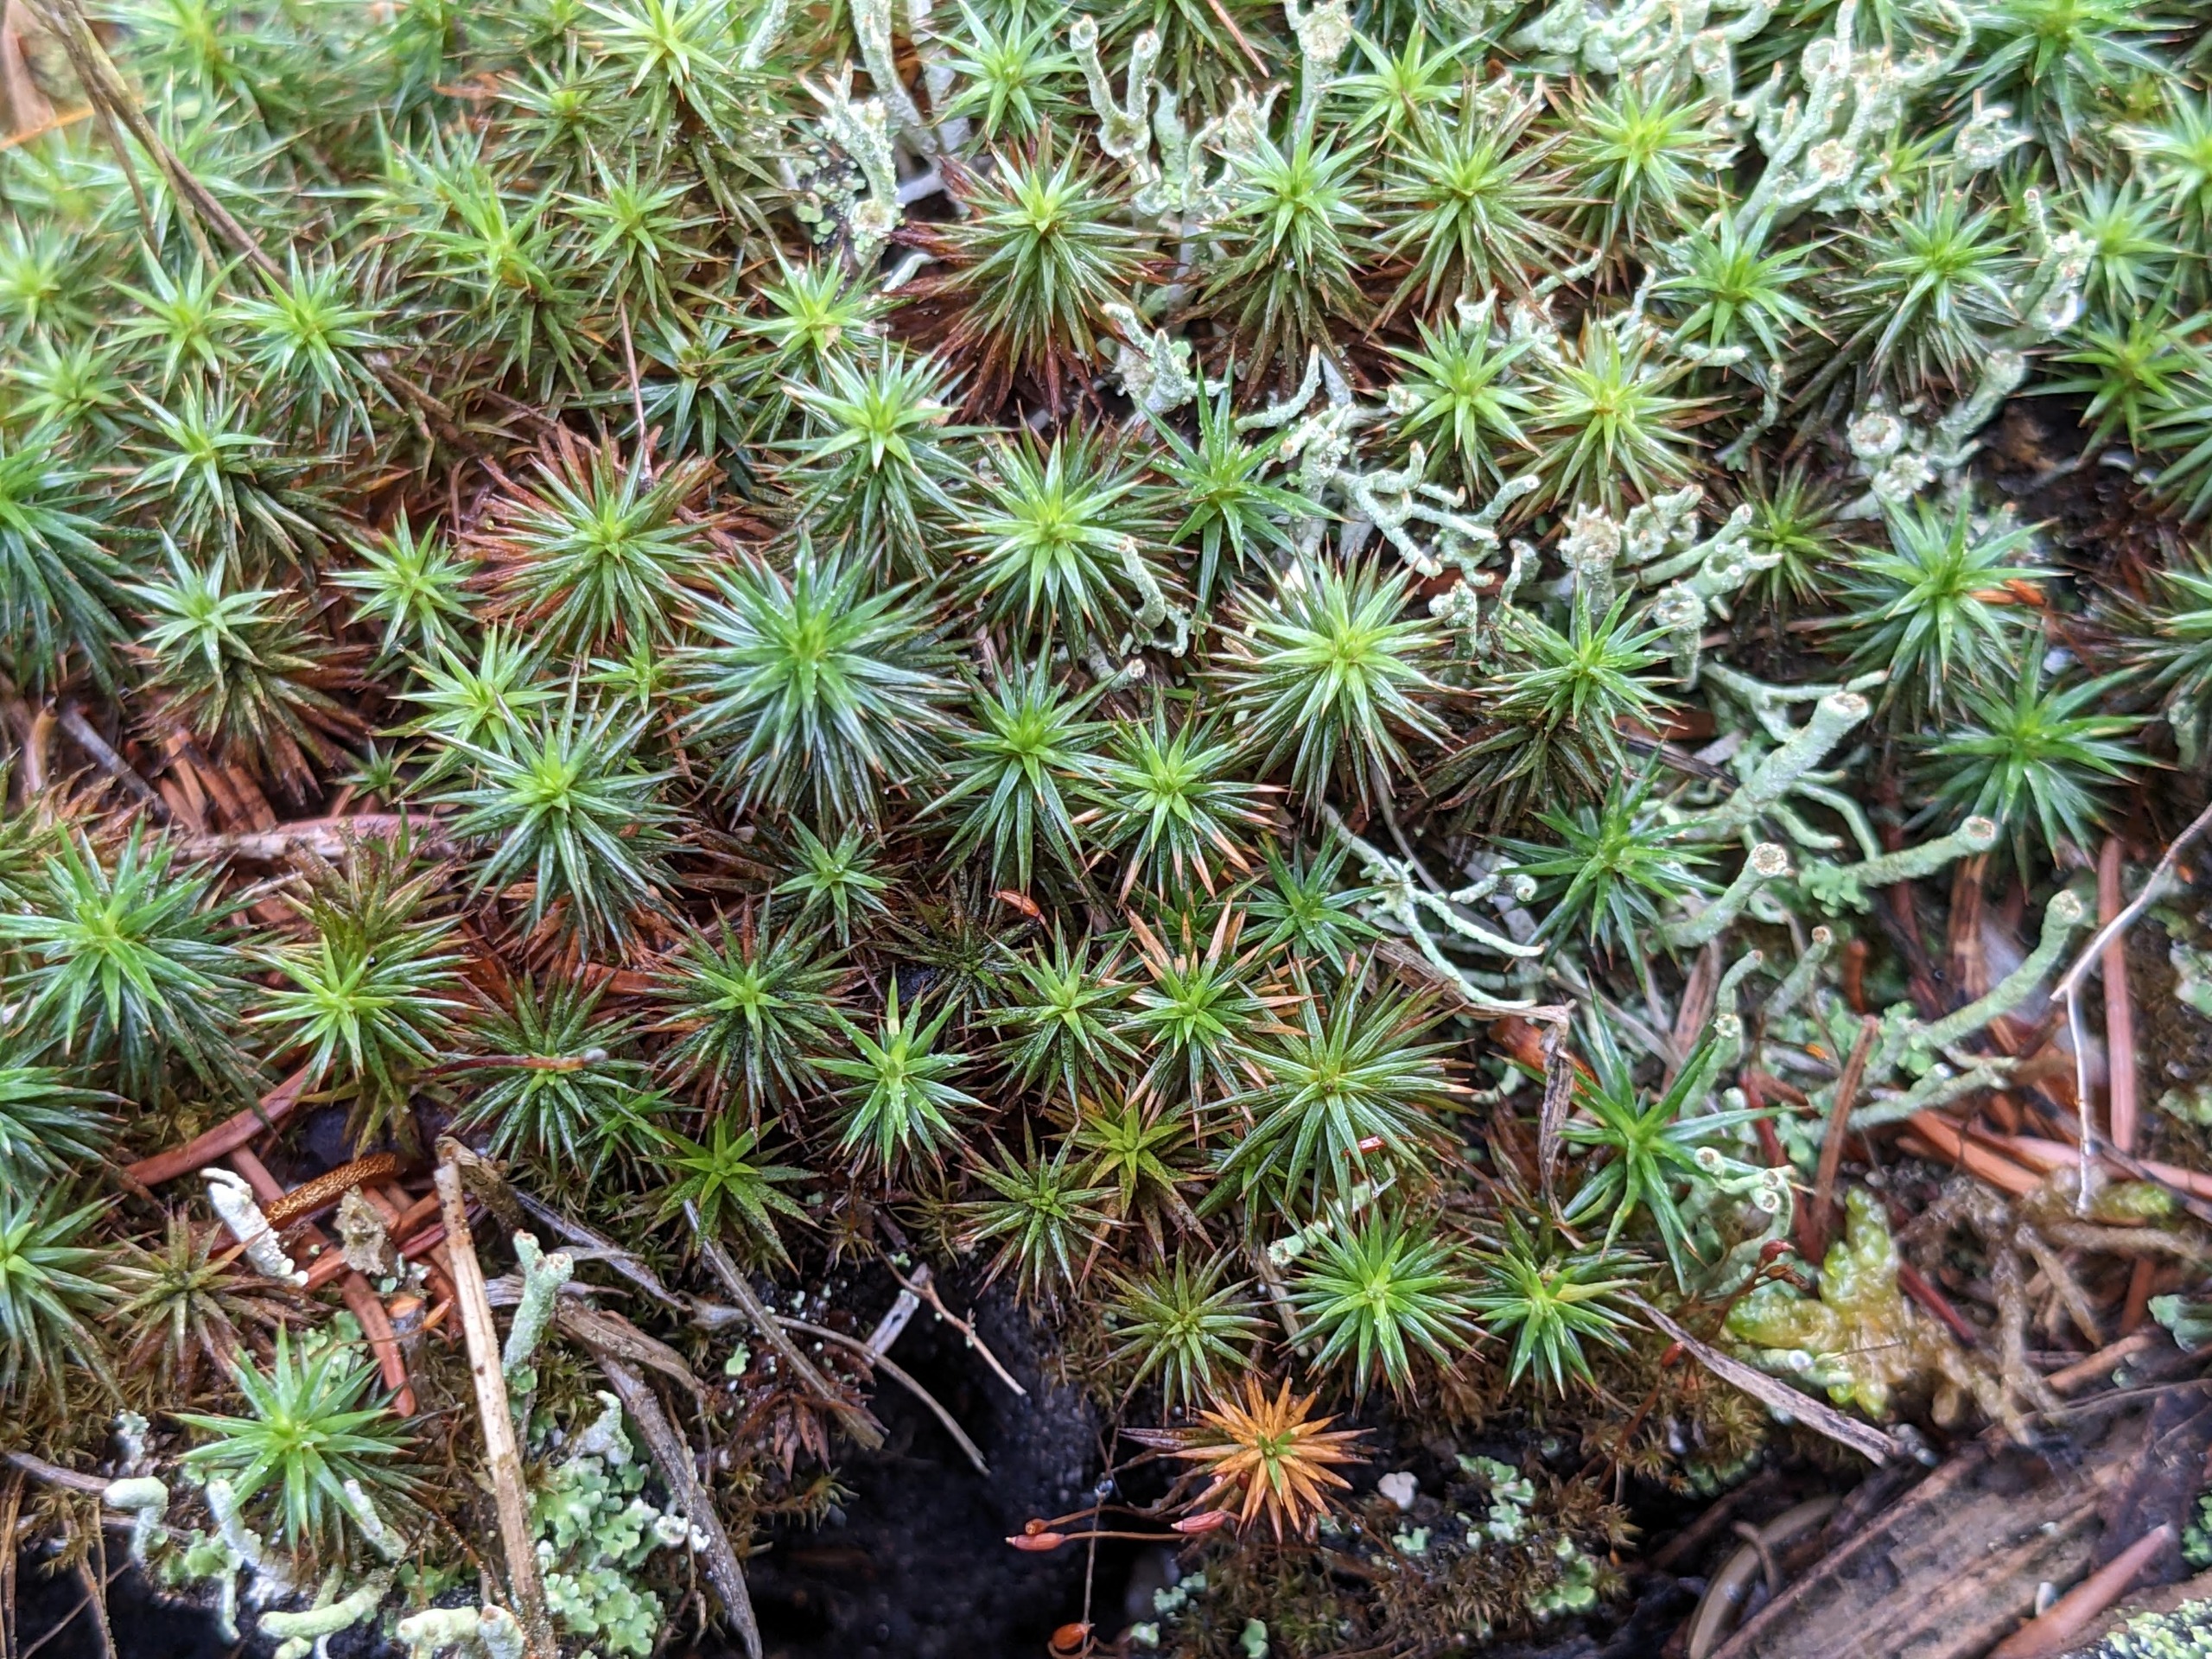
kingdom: Plantae
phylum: Bryophyta
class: Polytrichopsida
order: Polytrichales
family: Polytrichaceae
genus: Polytrichum
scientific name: Polytrichum juniperinum
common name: Ene-jomfruhår
